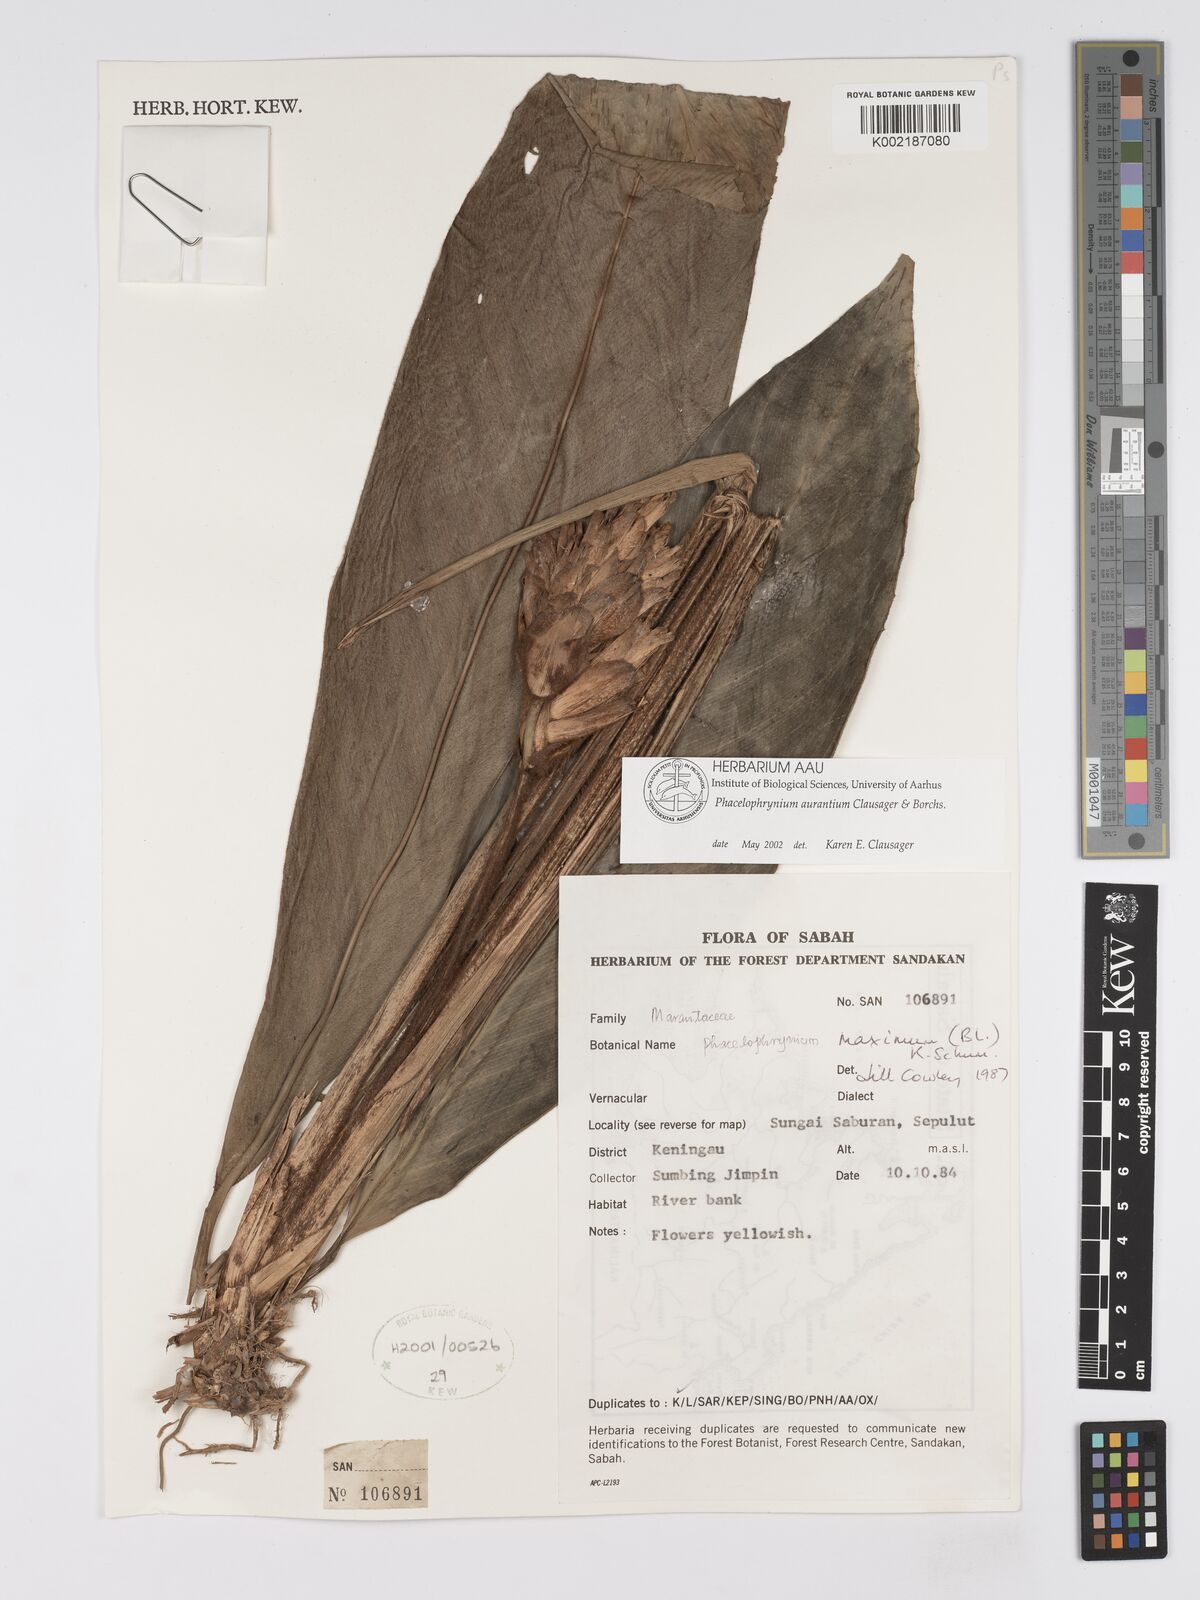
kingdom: Plantae
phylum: Tracheophyta
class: Liliopsida
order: Zingiberales
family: Marantaceae
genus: Phrynium
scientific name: Phrynium maximum
